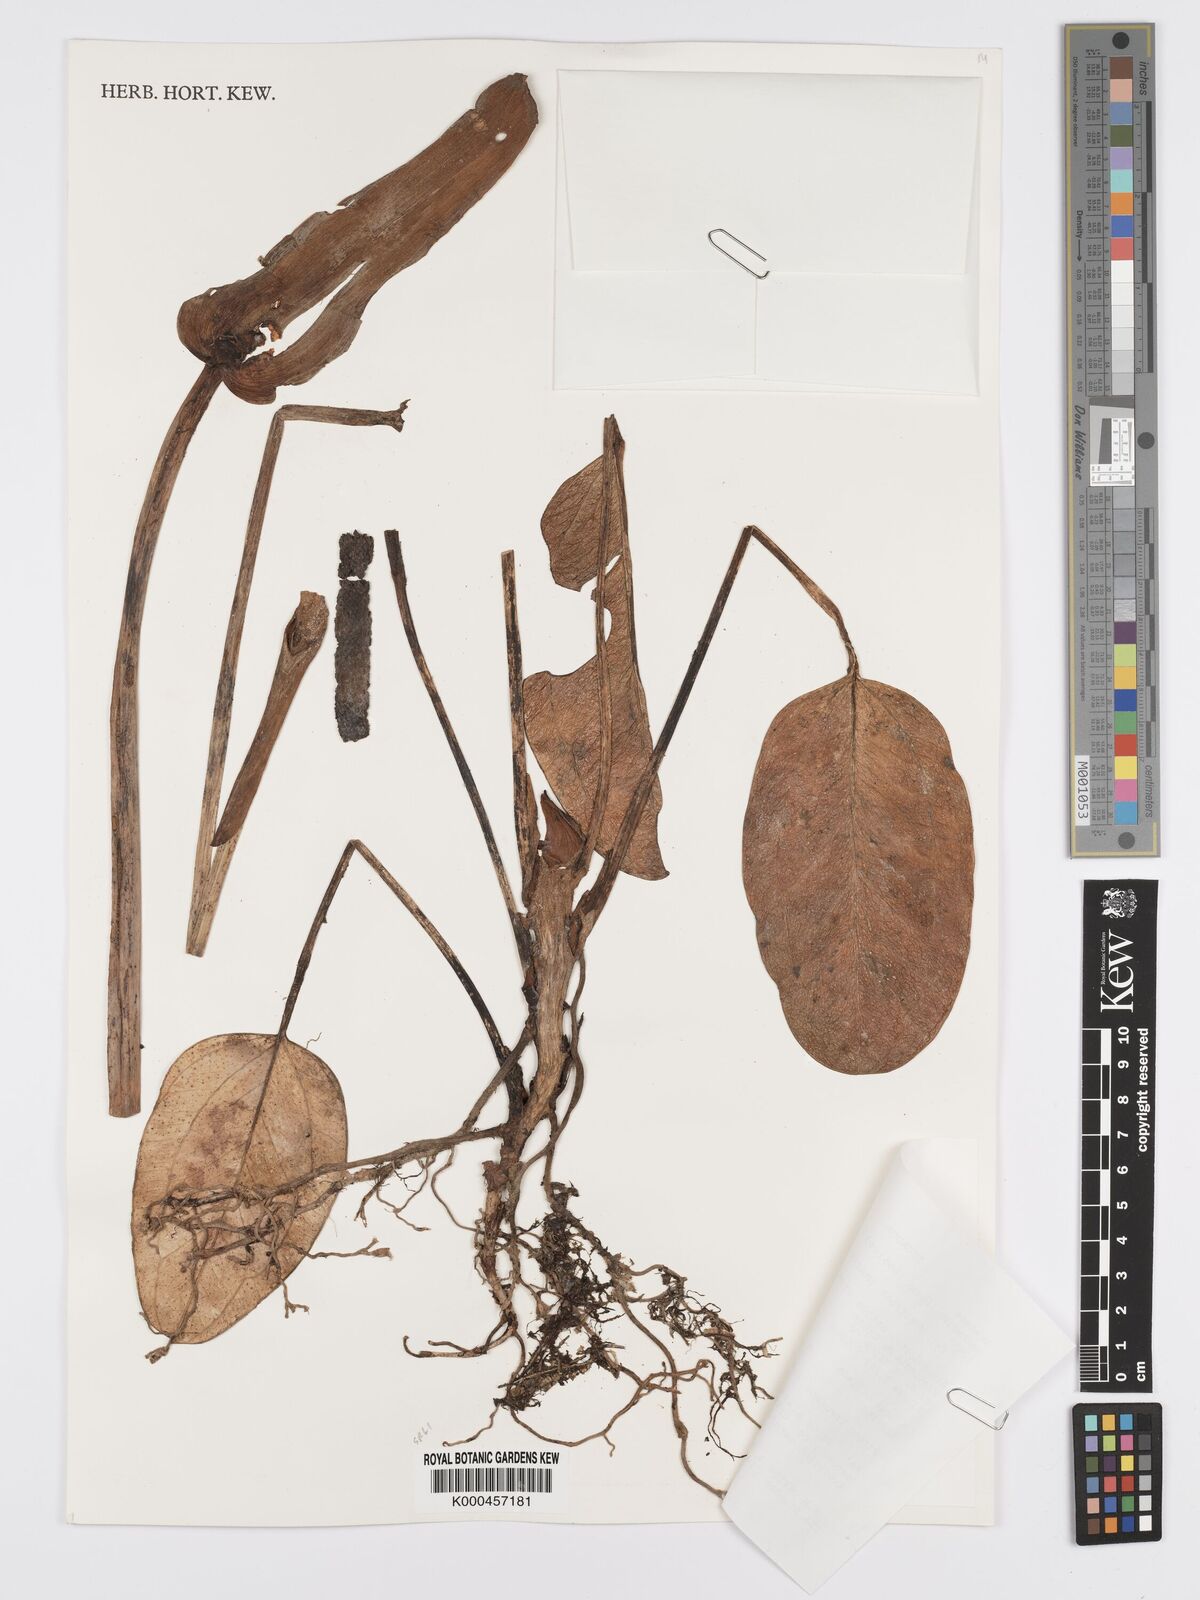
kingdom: Plantae
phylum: Tracheophyta
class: Liliopsida
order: Alismatales
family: Araceae
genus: Anthurium
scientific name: Anthurium lingua
